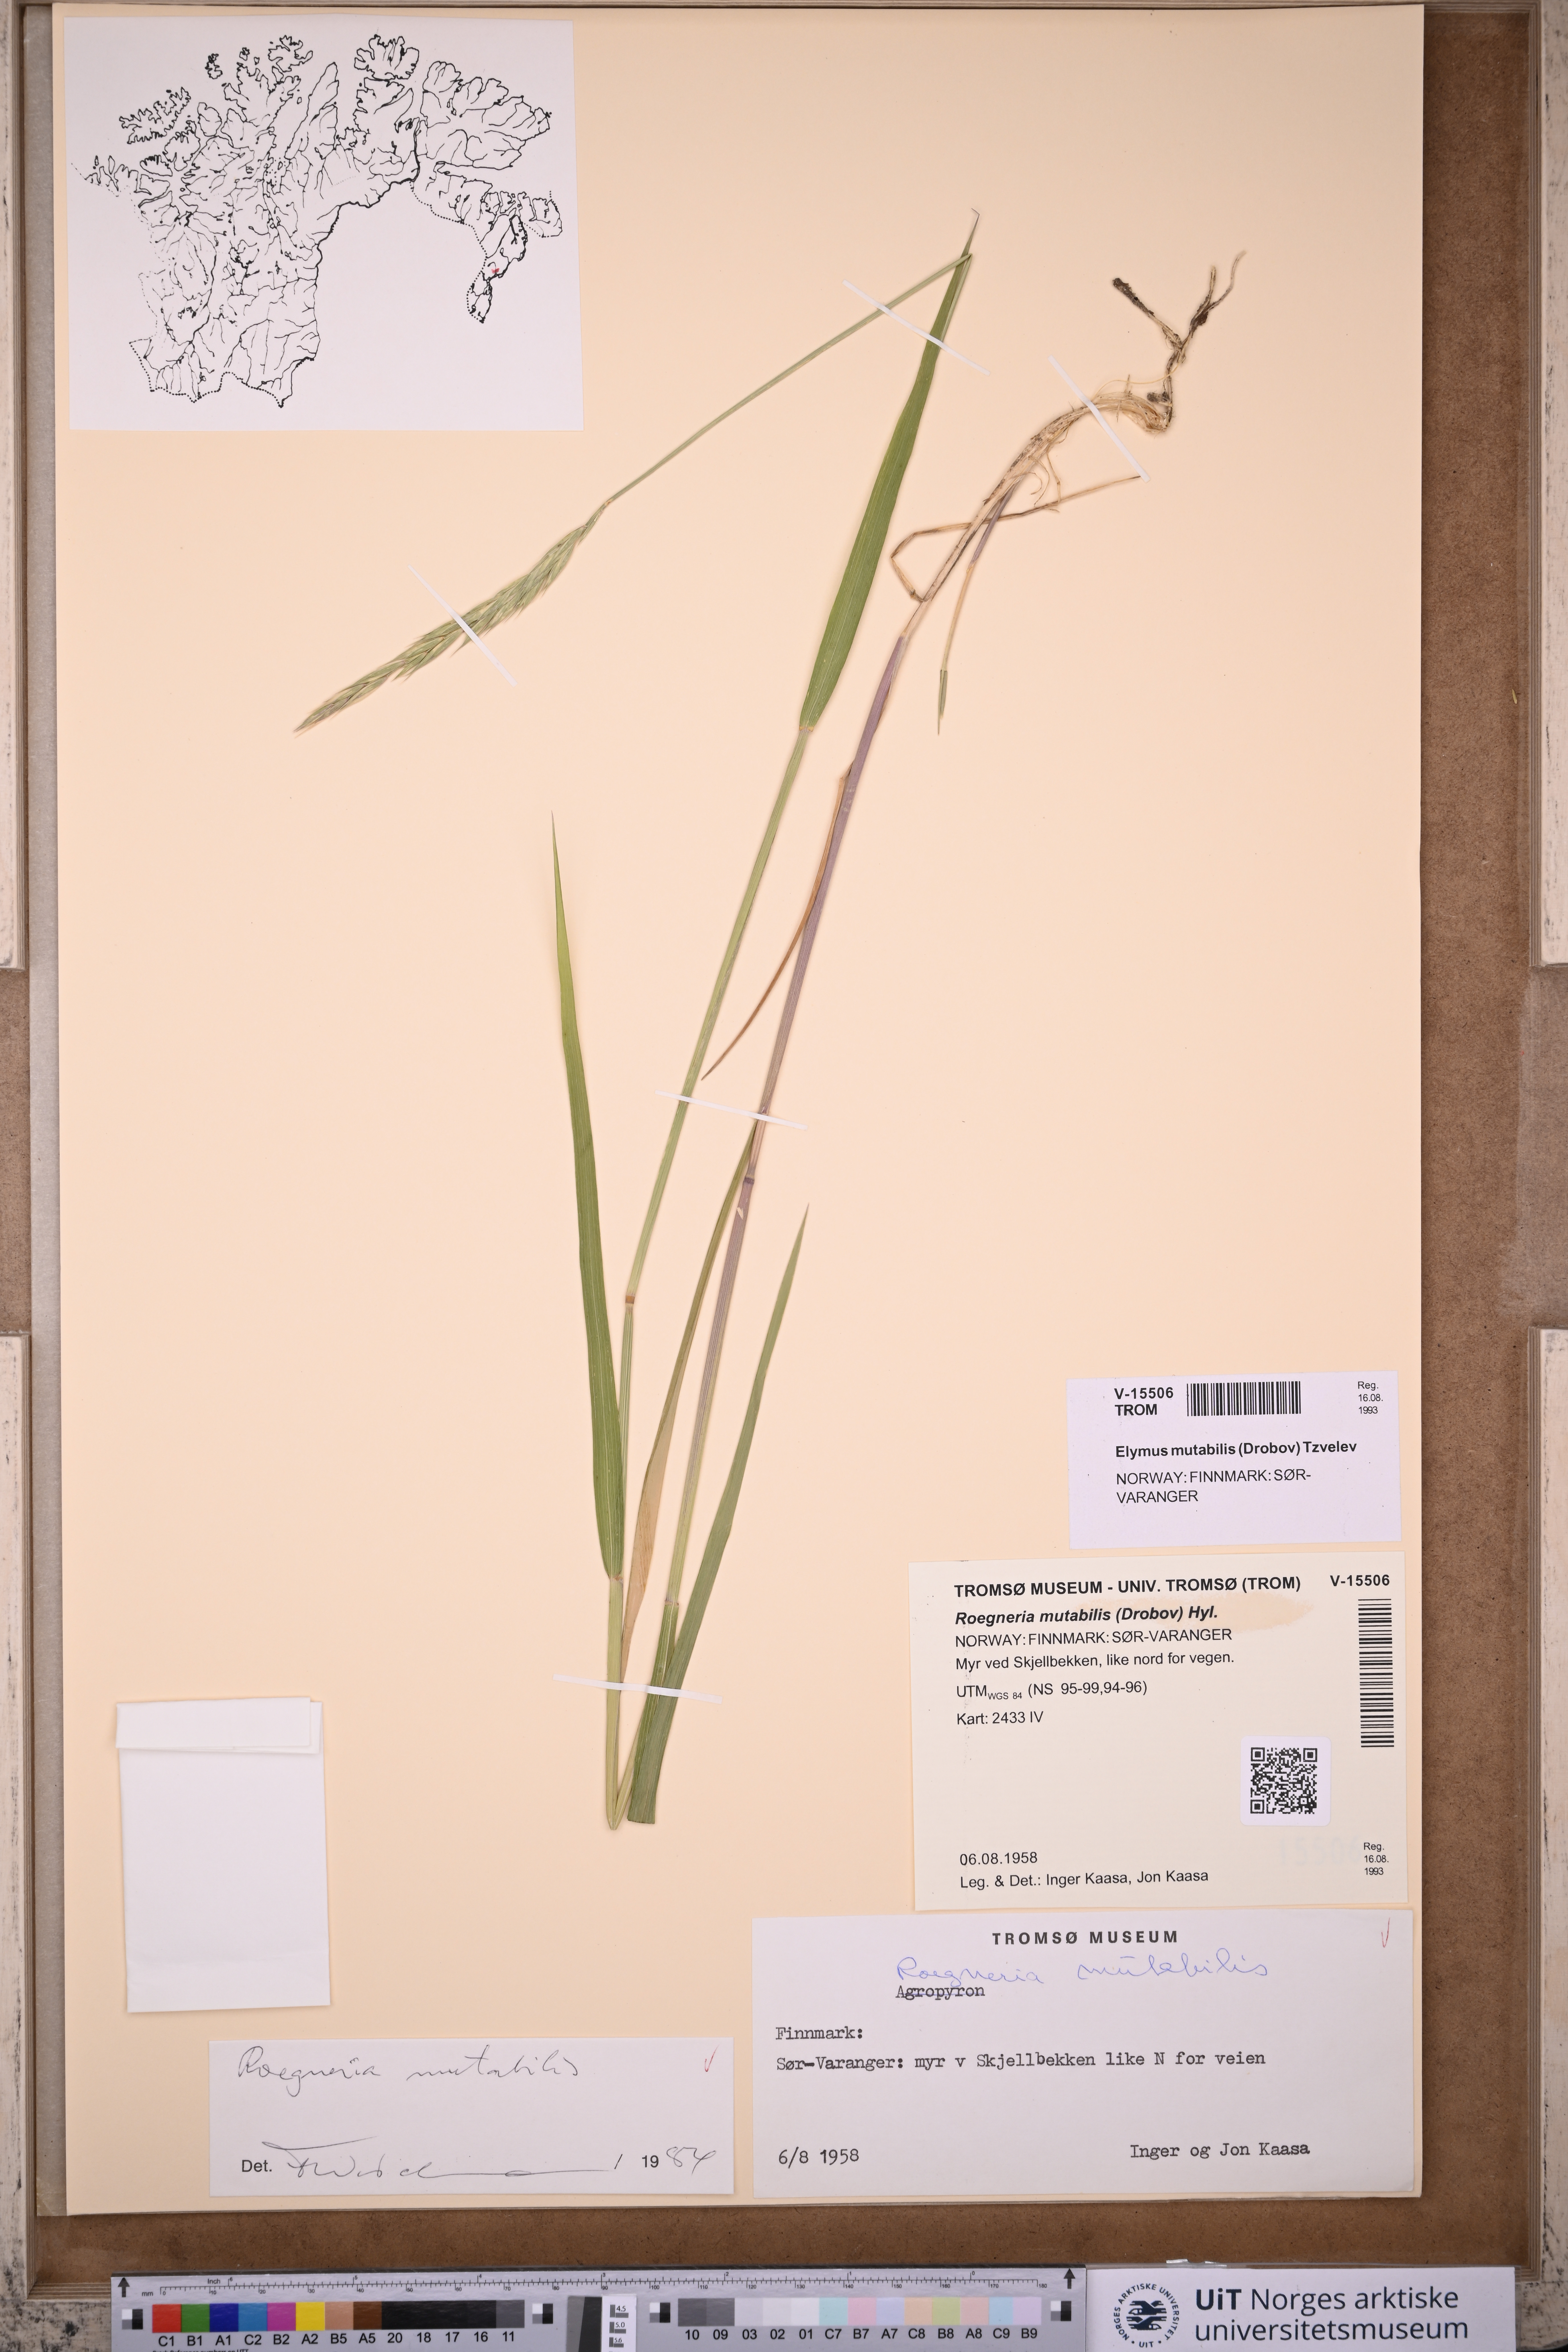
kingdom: Plantae
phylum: Tracheophyta
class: Liliopsida
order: Poales
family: Poaceae
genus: Elymus
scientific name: Elymus mutabilis
